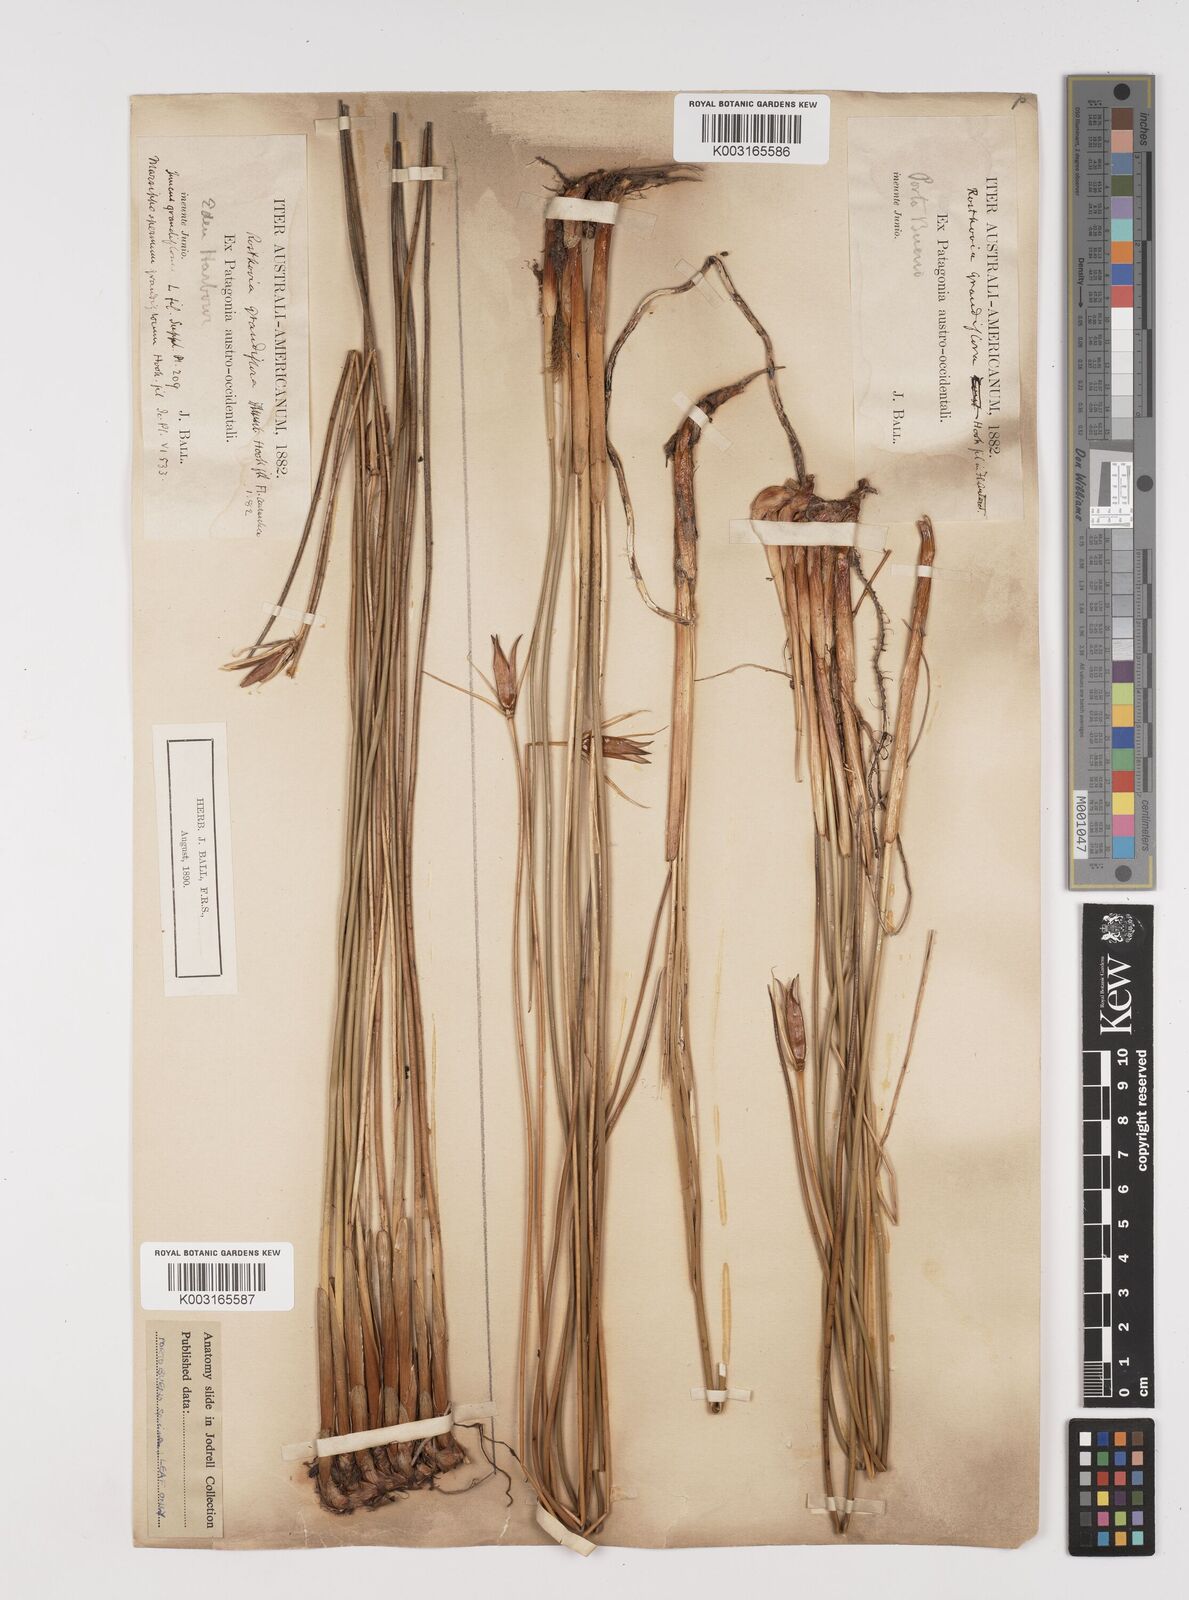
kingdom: Plantae
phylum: Tracheophyta
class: Liliopsida
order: Poales
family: Juncaceae
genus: Marsippospermum
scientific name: Marsippospermum grandiflorum
